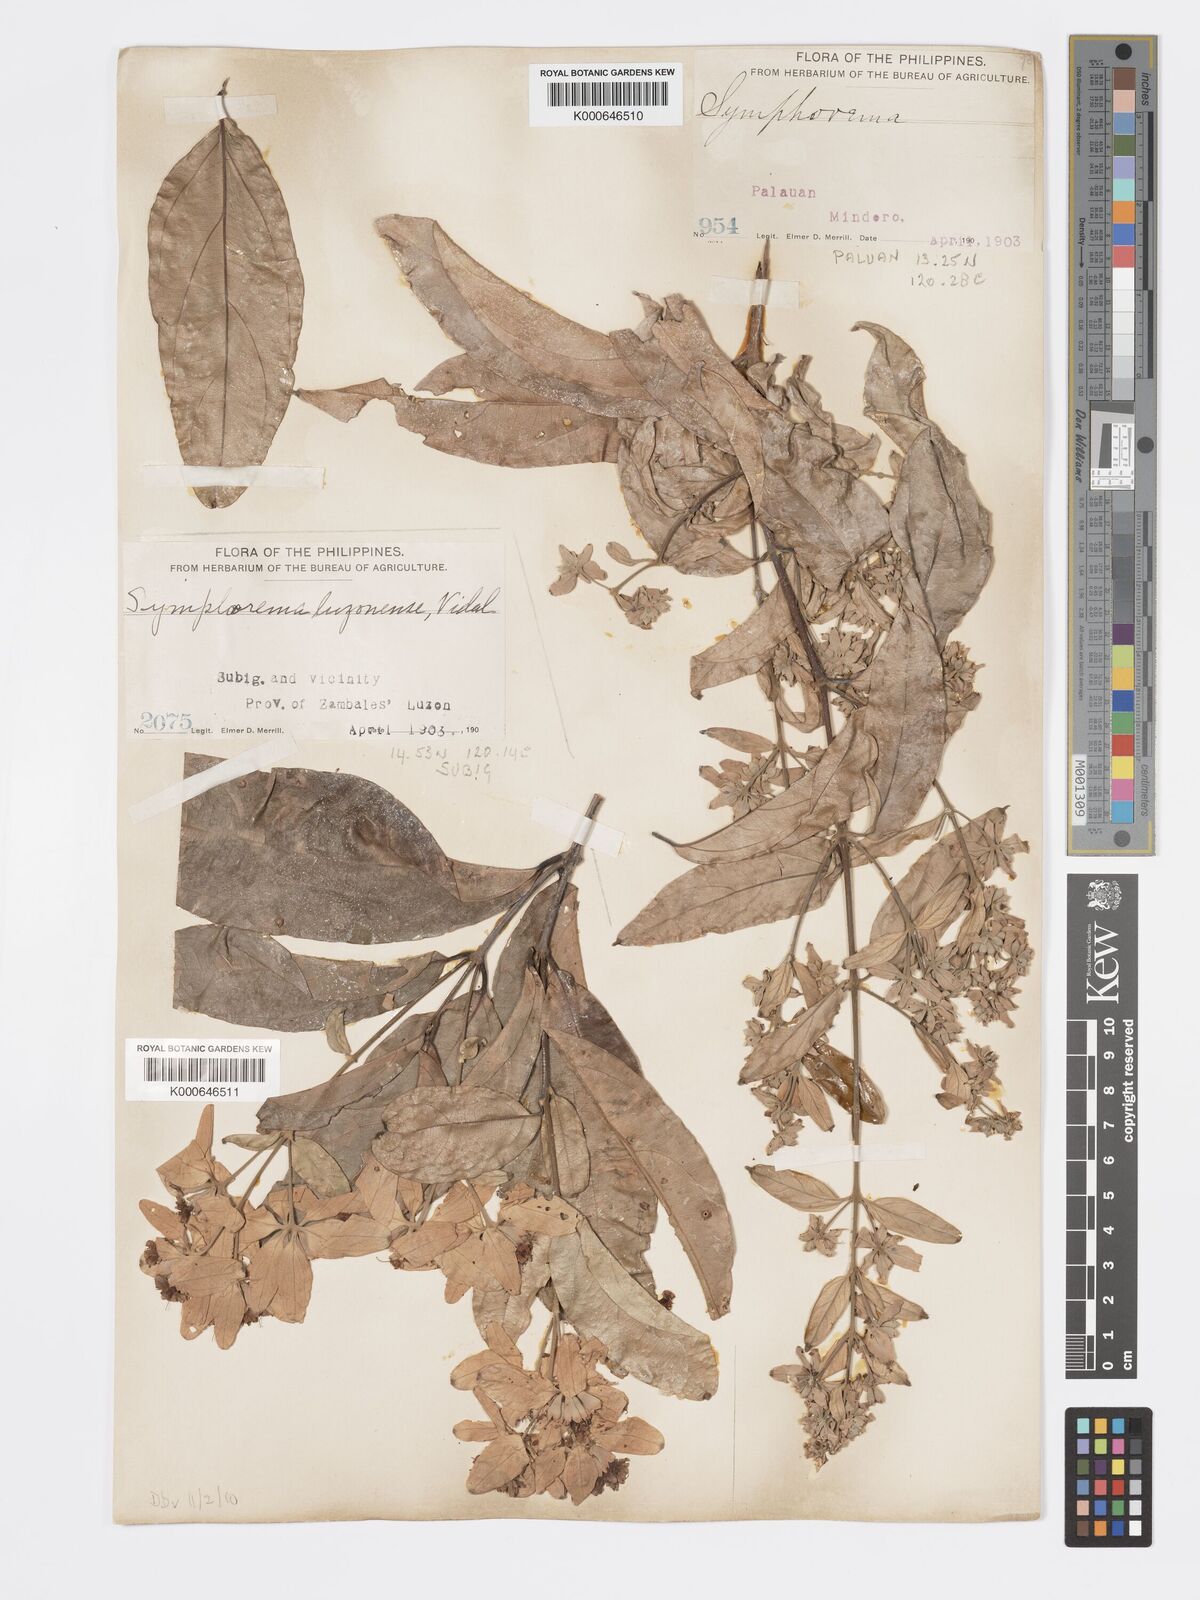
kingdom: Plantae
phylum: Tracheophyta
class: Magnoliopsida
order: Lamiales
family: Lamiaceae
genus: Symphorema
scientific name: Symphorema luzonicum
